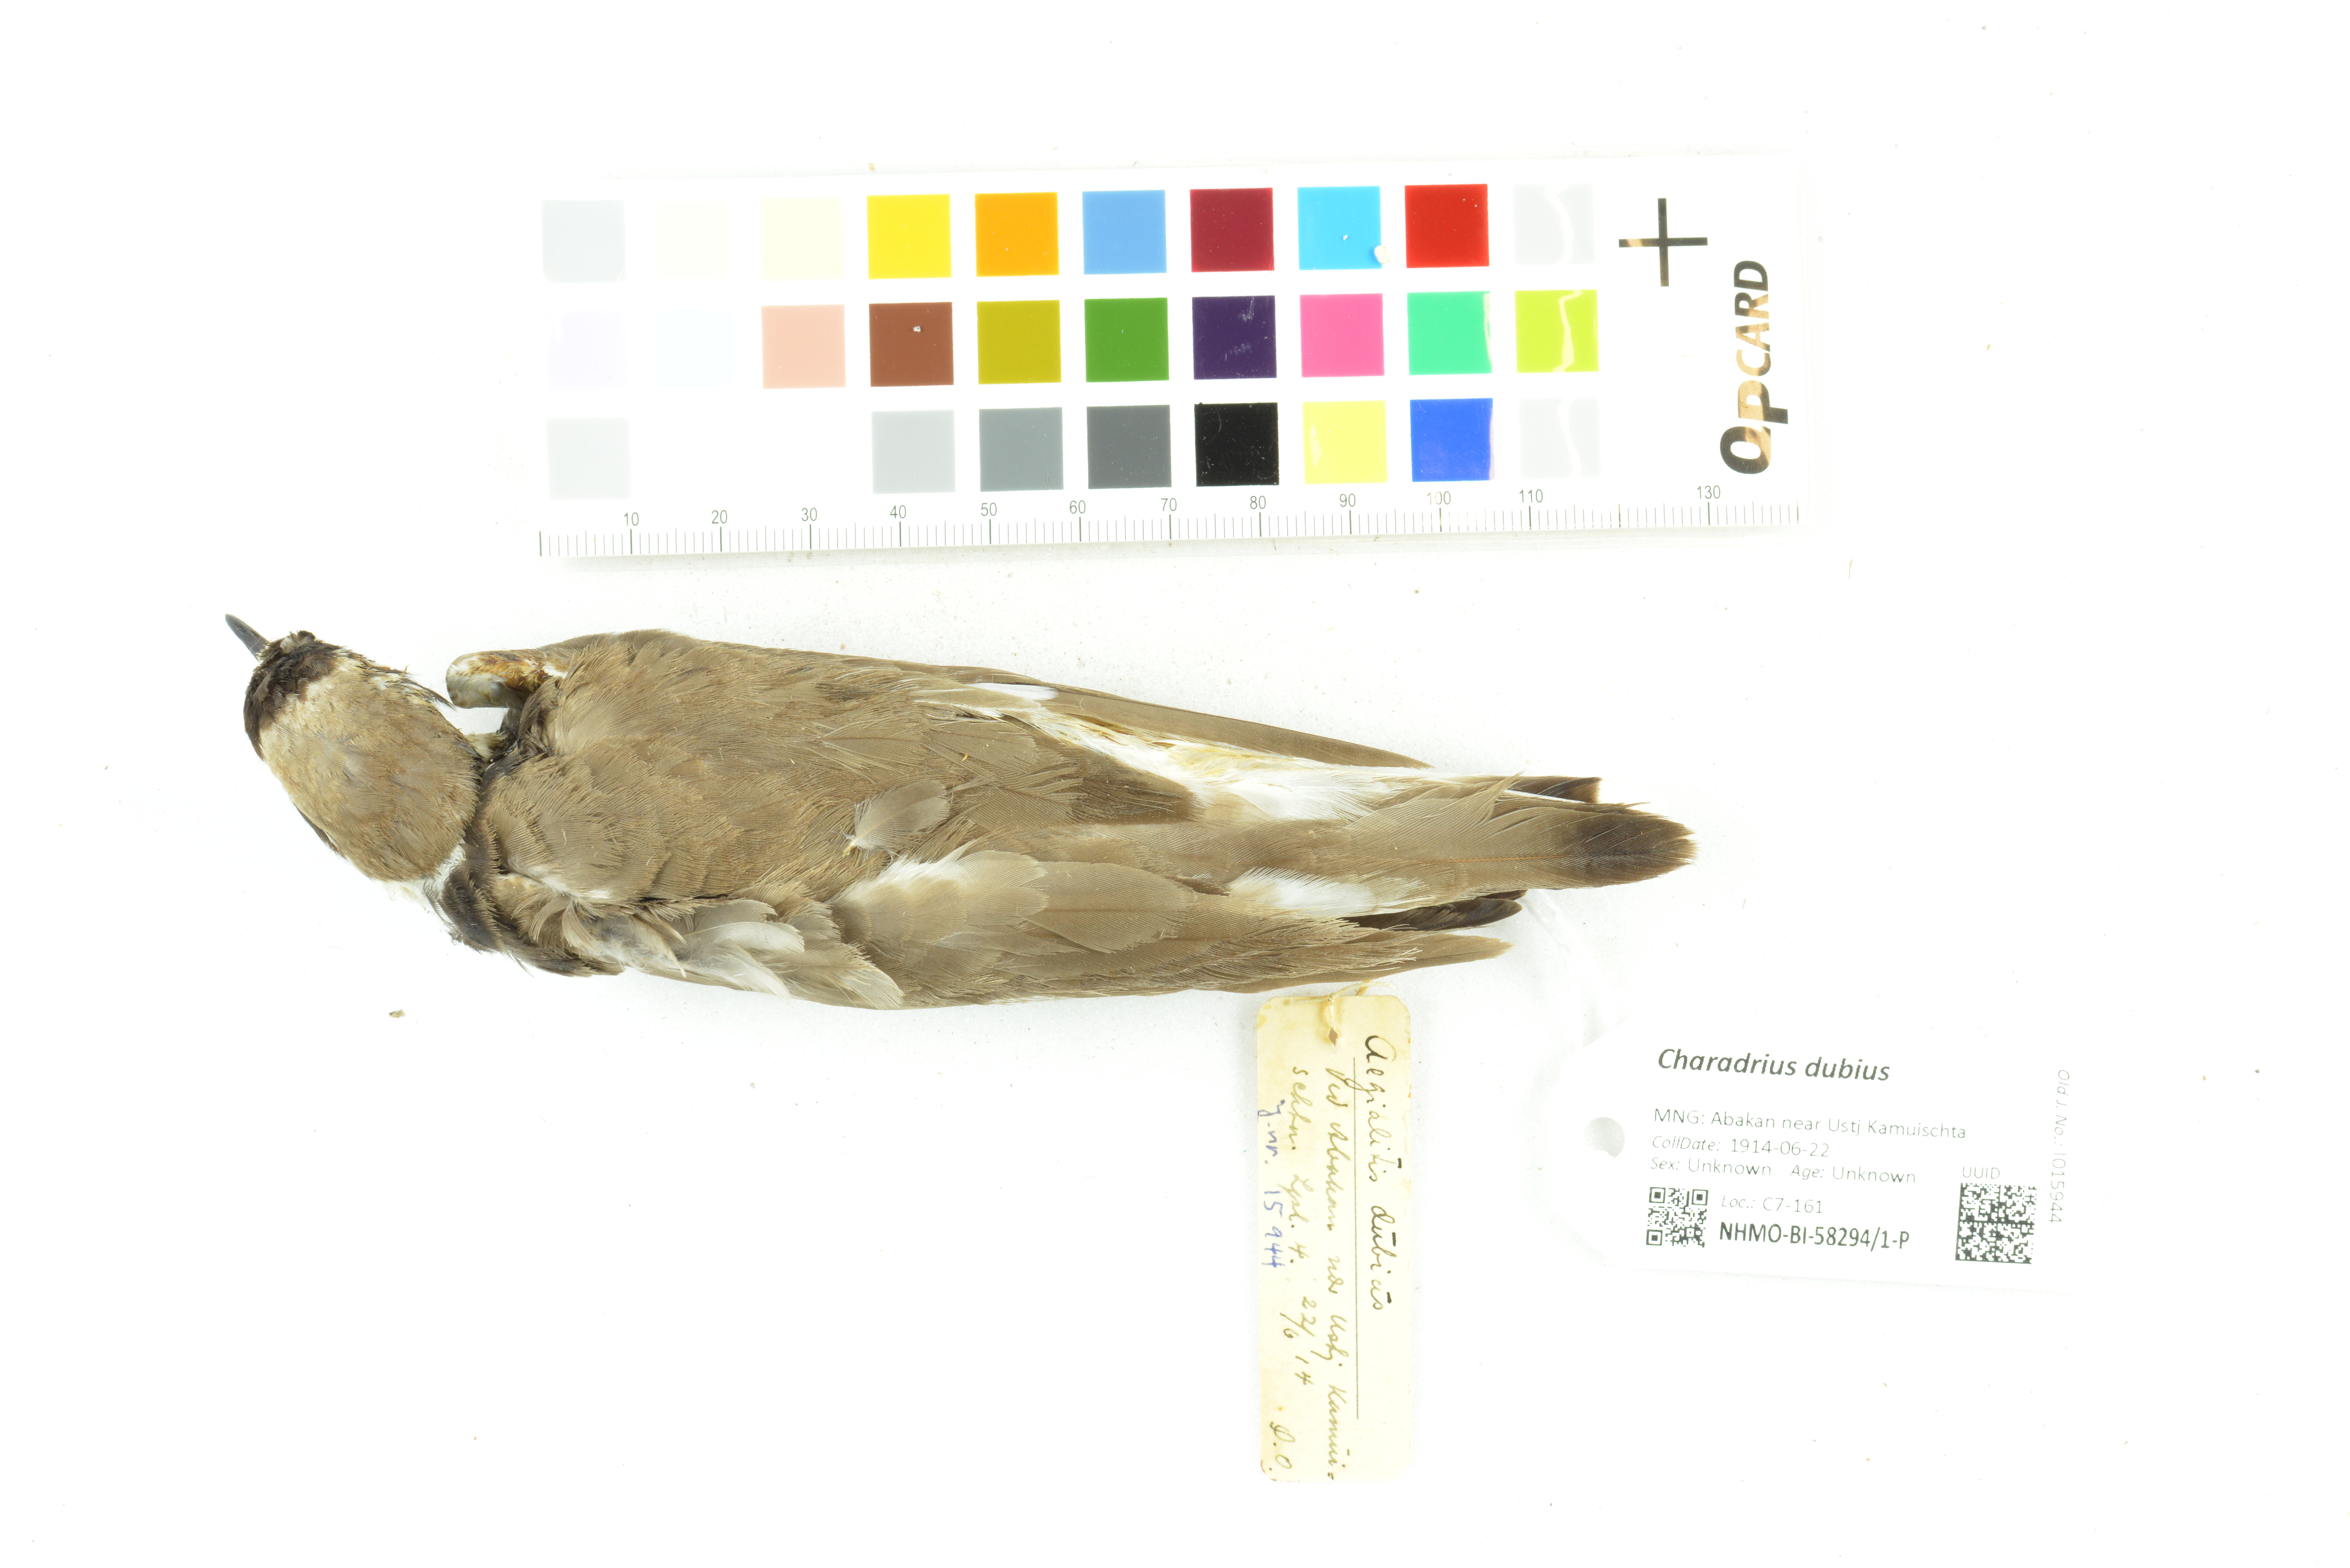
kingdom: Animalia
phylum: Chordata
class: Aves
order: Charadriiformes
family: Charadriidae
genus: Charadrius
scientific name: Charadrius dubius
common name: Little ringed plover
